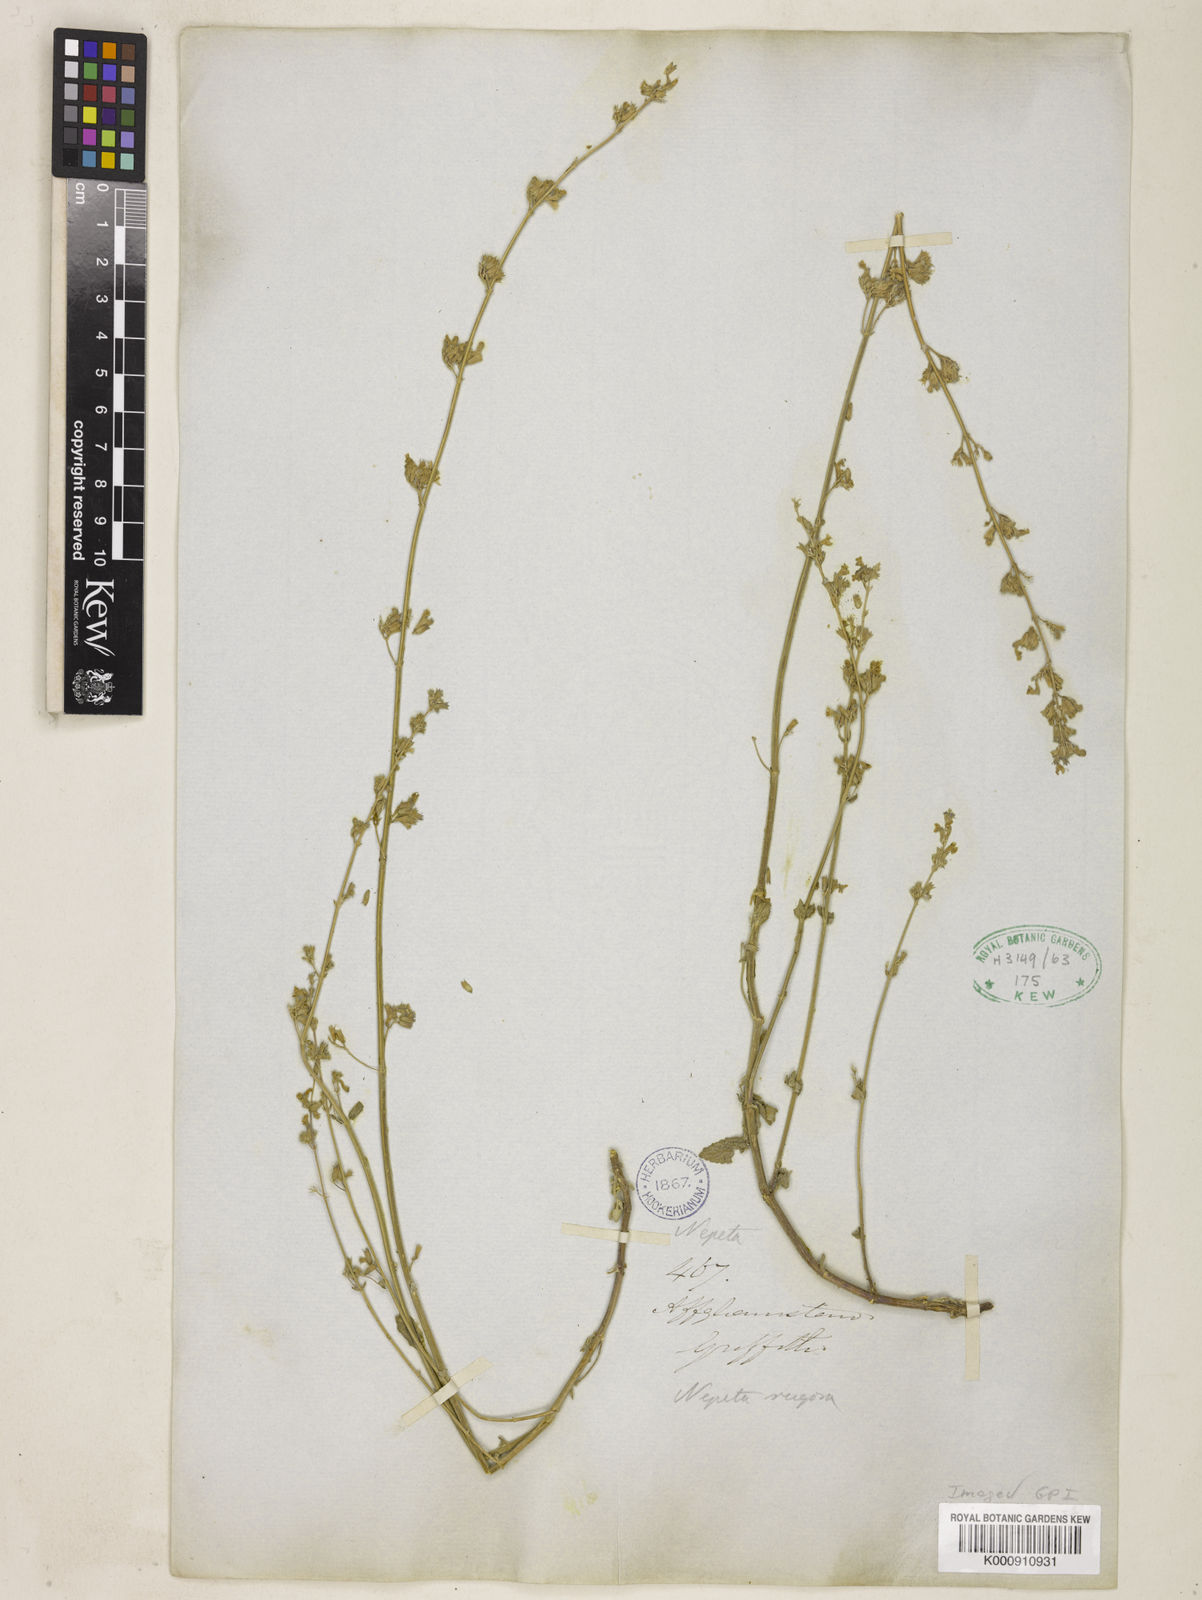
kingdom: Plantae
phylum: Tracheophyta
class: Magnoliopsida
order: Lamiales
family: Lamiaceae
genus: Nepeta
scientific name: Nepeta rugosa
